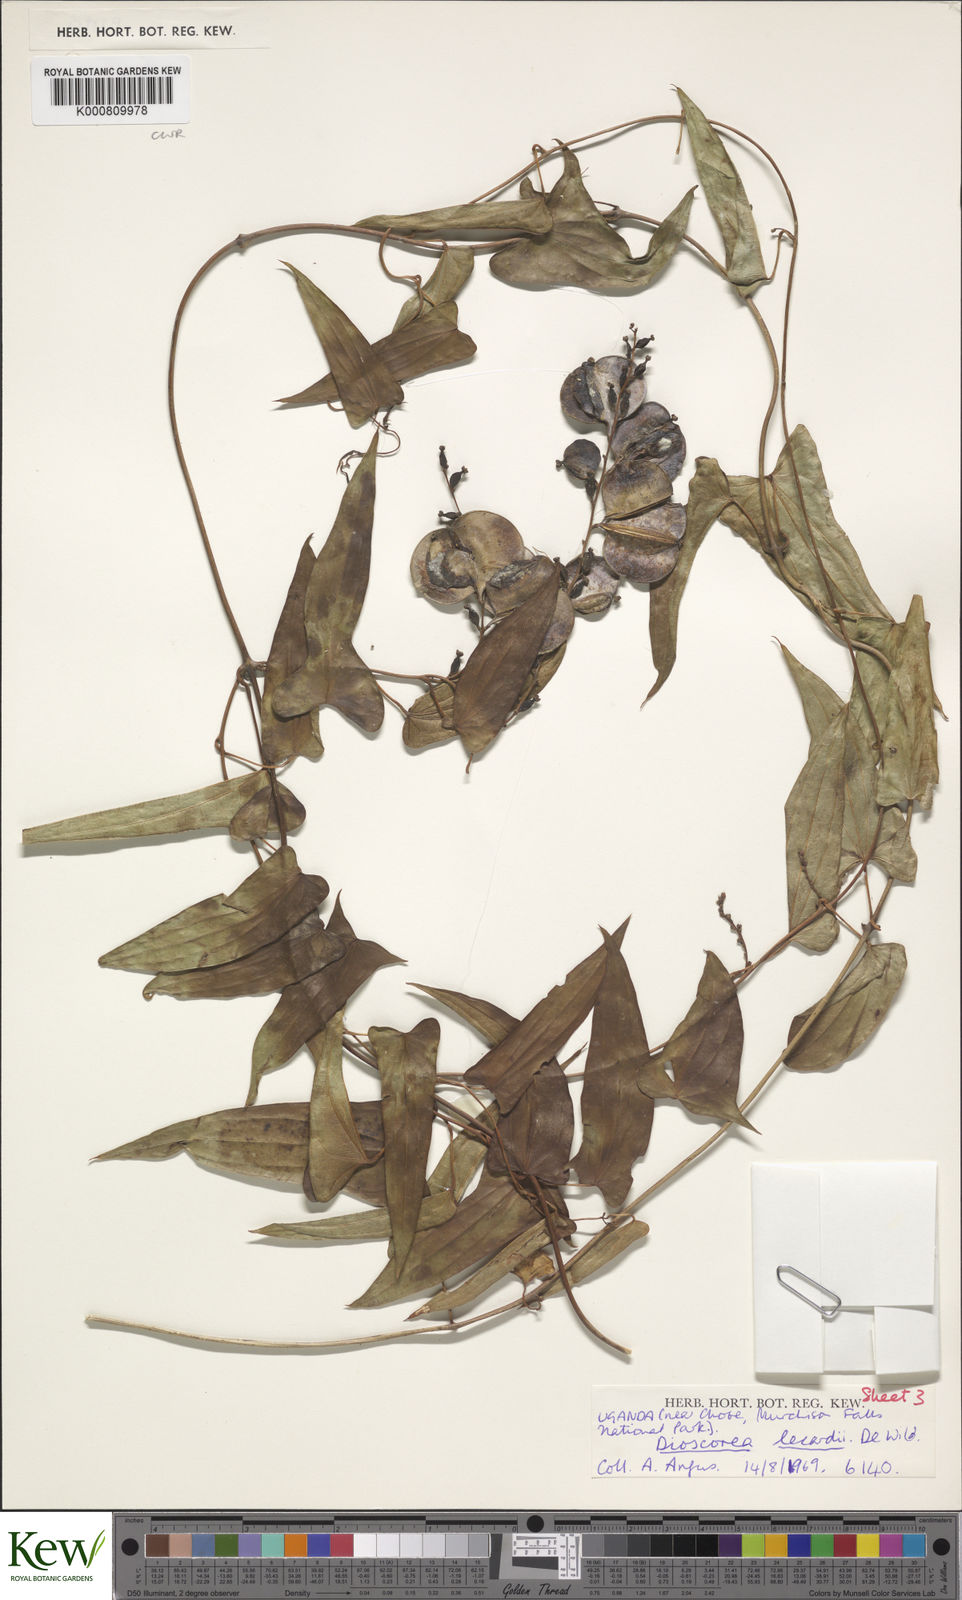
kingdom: Plantae
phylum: Tracheophyta
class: Liliopsida
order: Dioscoreales
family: Dioscoreaceae
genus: Dioscorea
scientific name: Dioscorea sagittifolia
